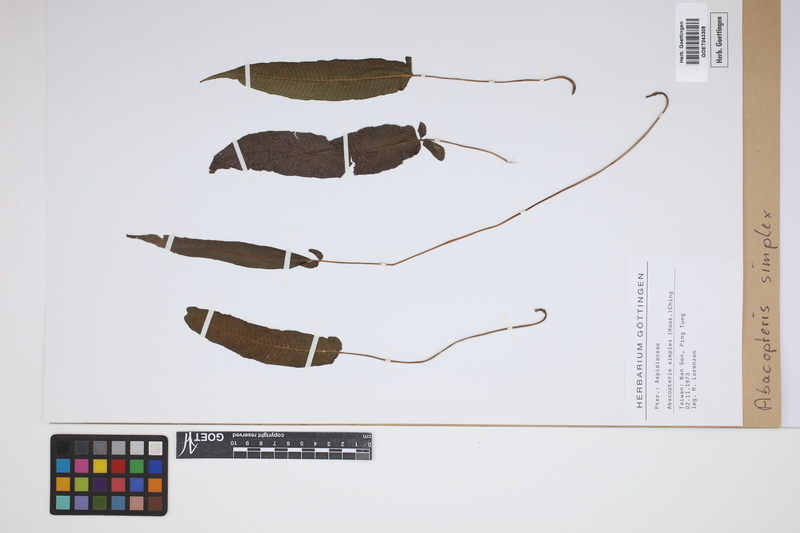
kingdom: Plantae
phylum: Tracheophyta
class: Polypodiopsida
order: Polypodiales
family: Thelypteridaceae
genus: Grypothrix
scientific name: Grypothrix simplex
